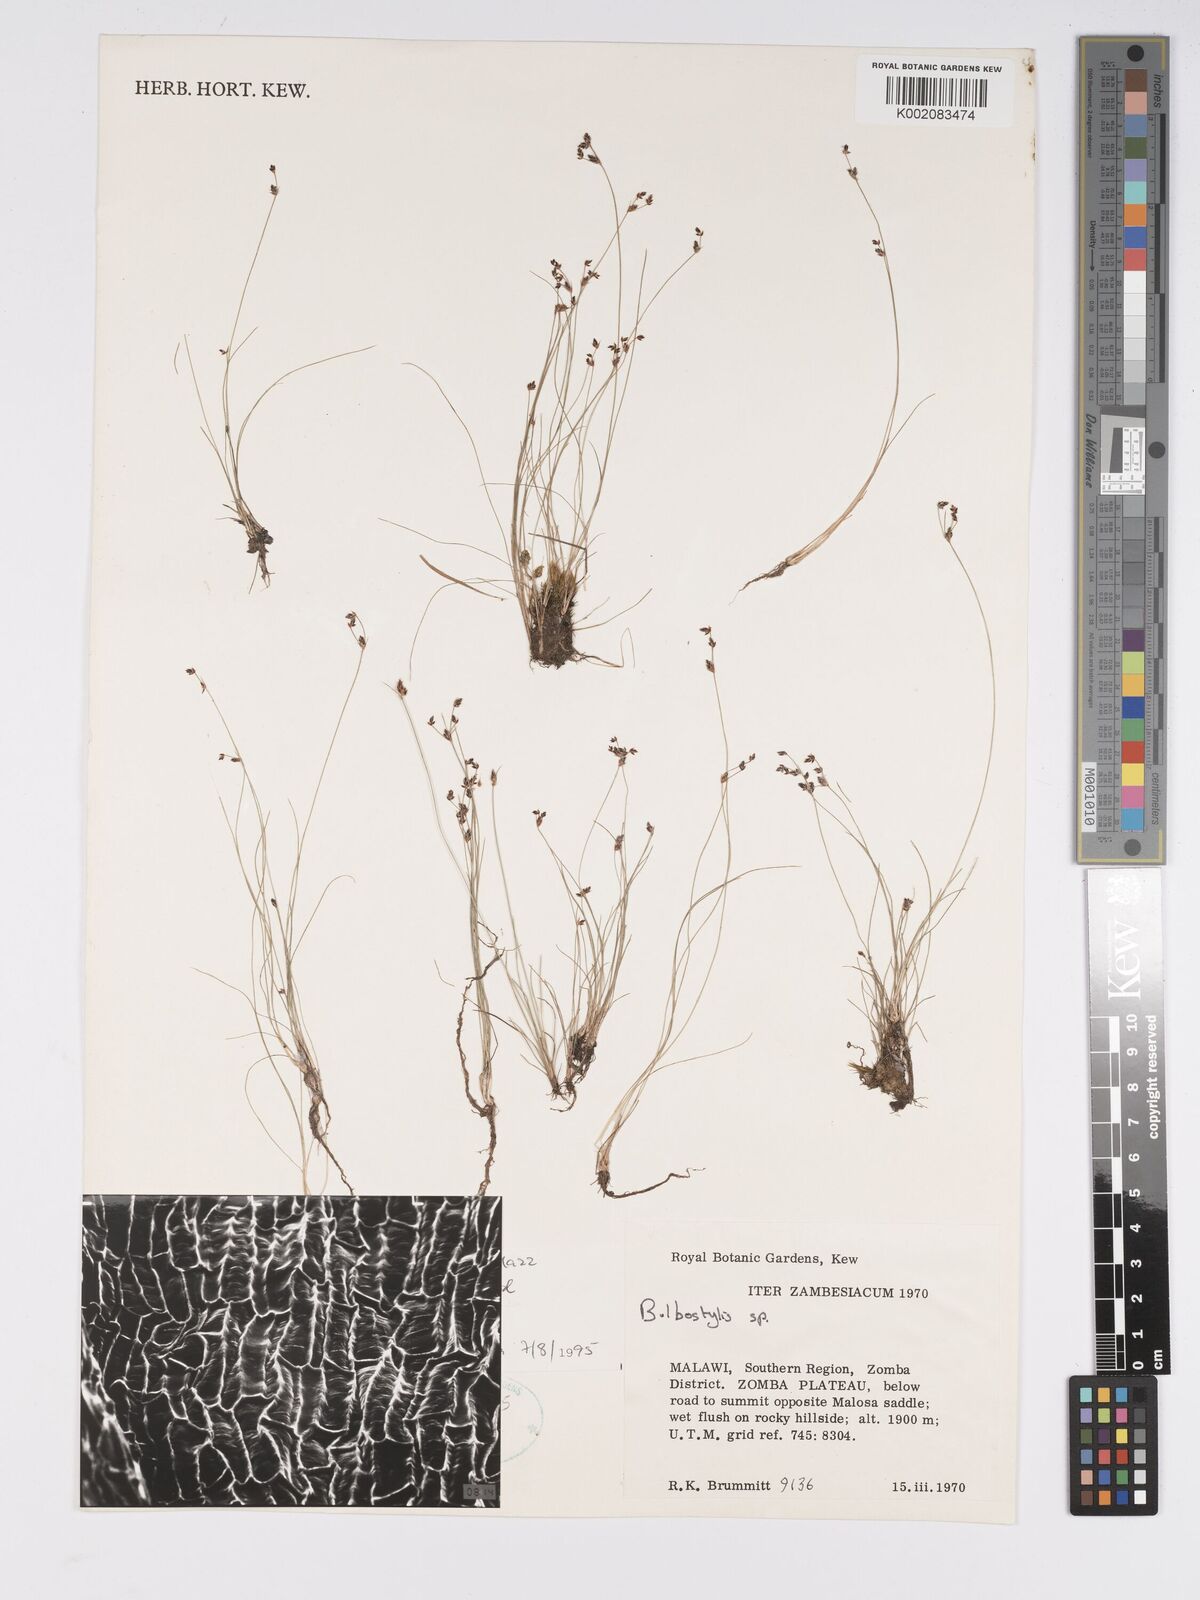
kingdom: Plantae
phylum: Tracheophyta
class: Liliopsida
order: Poales
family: Cyperaceae
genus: Bulbostylis
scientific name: Bulbostylis densa
